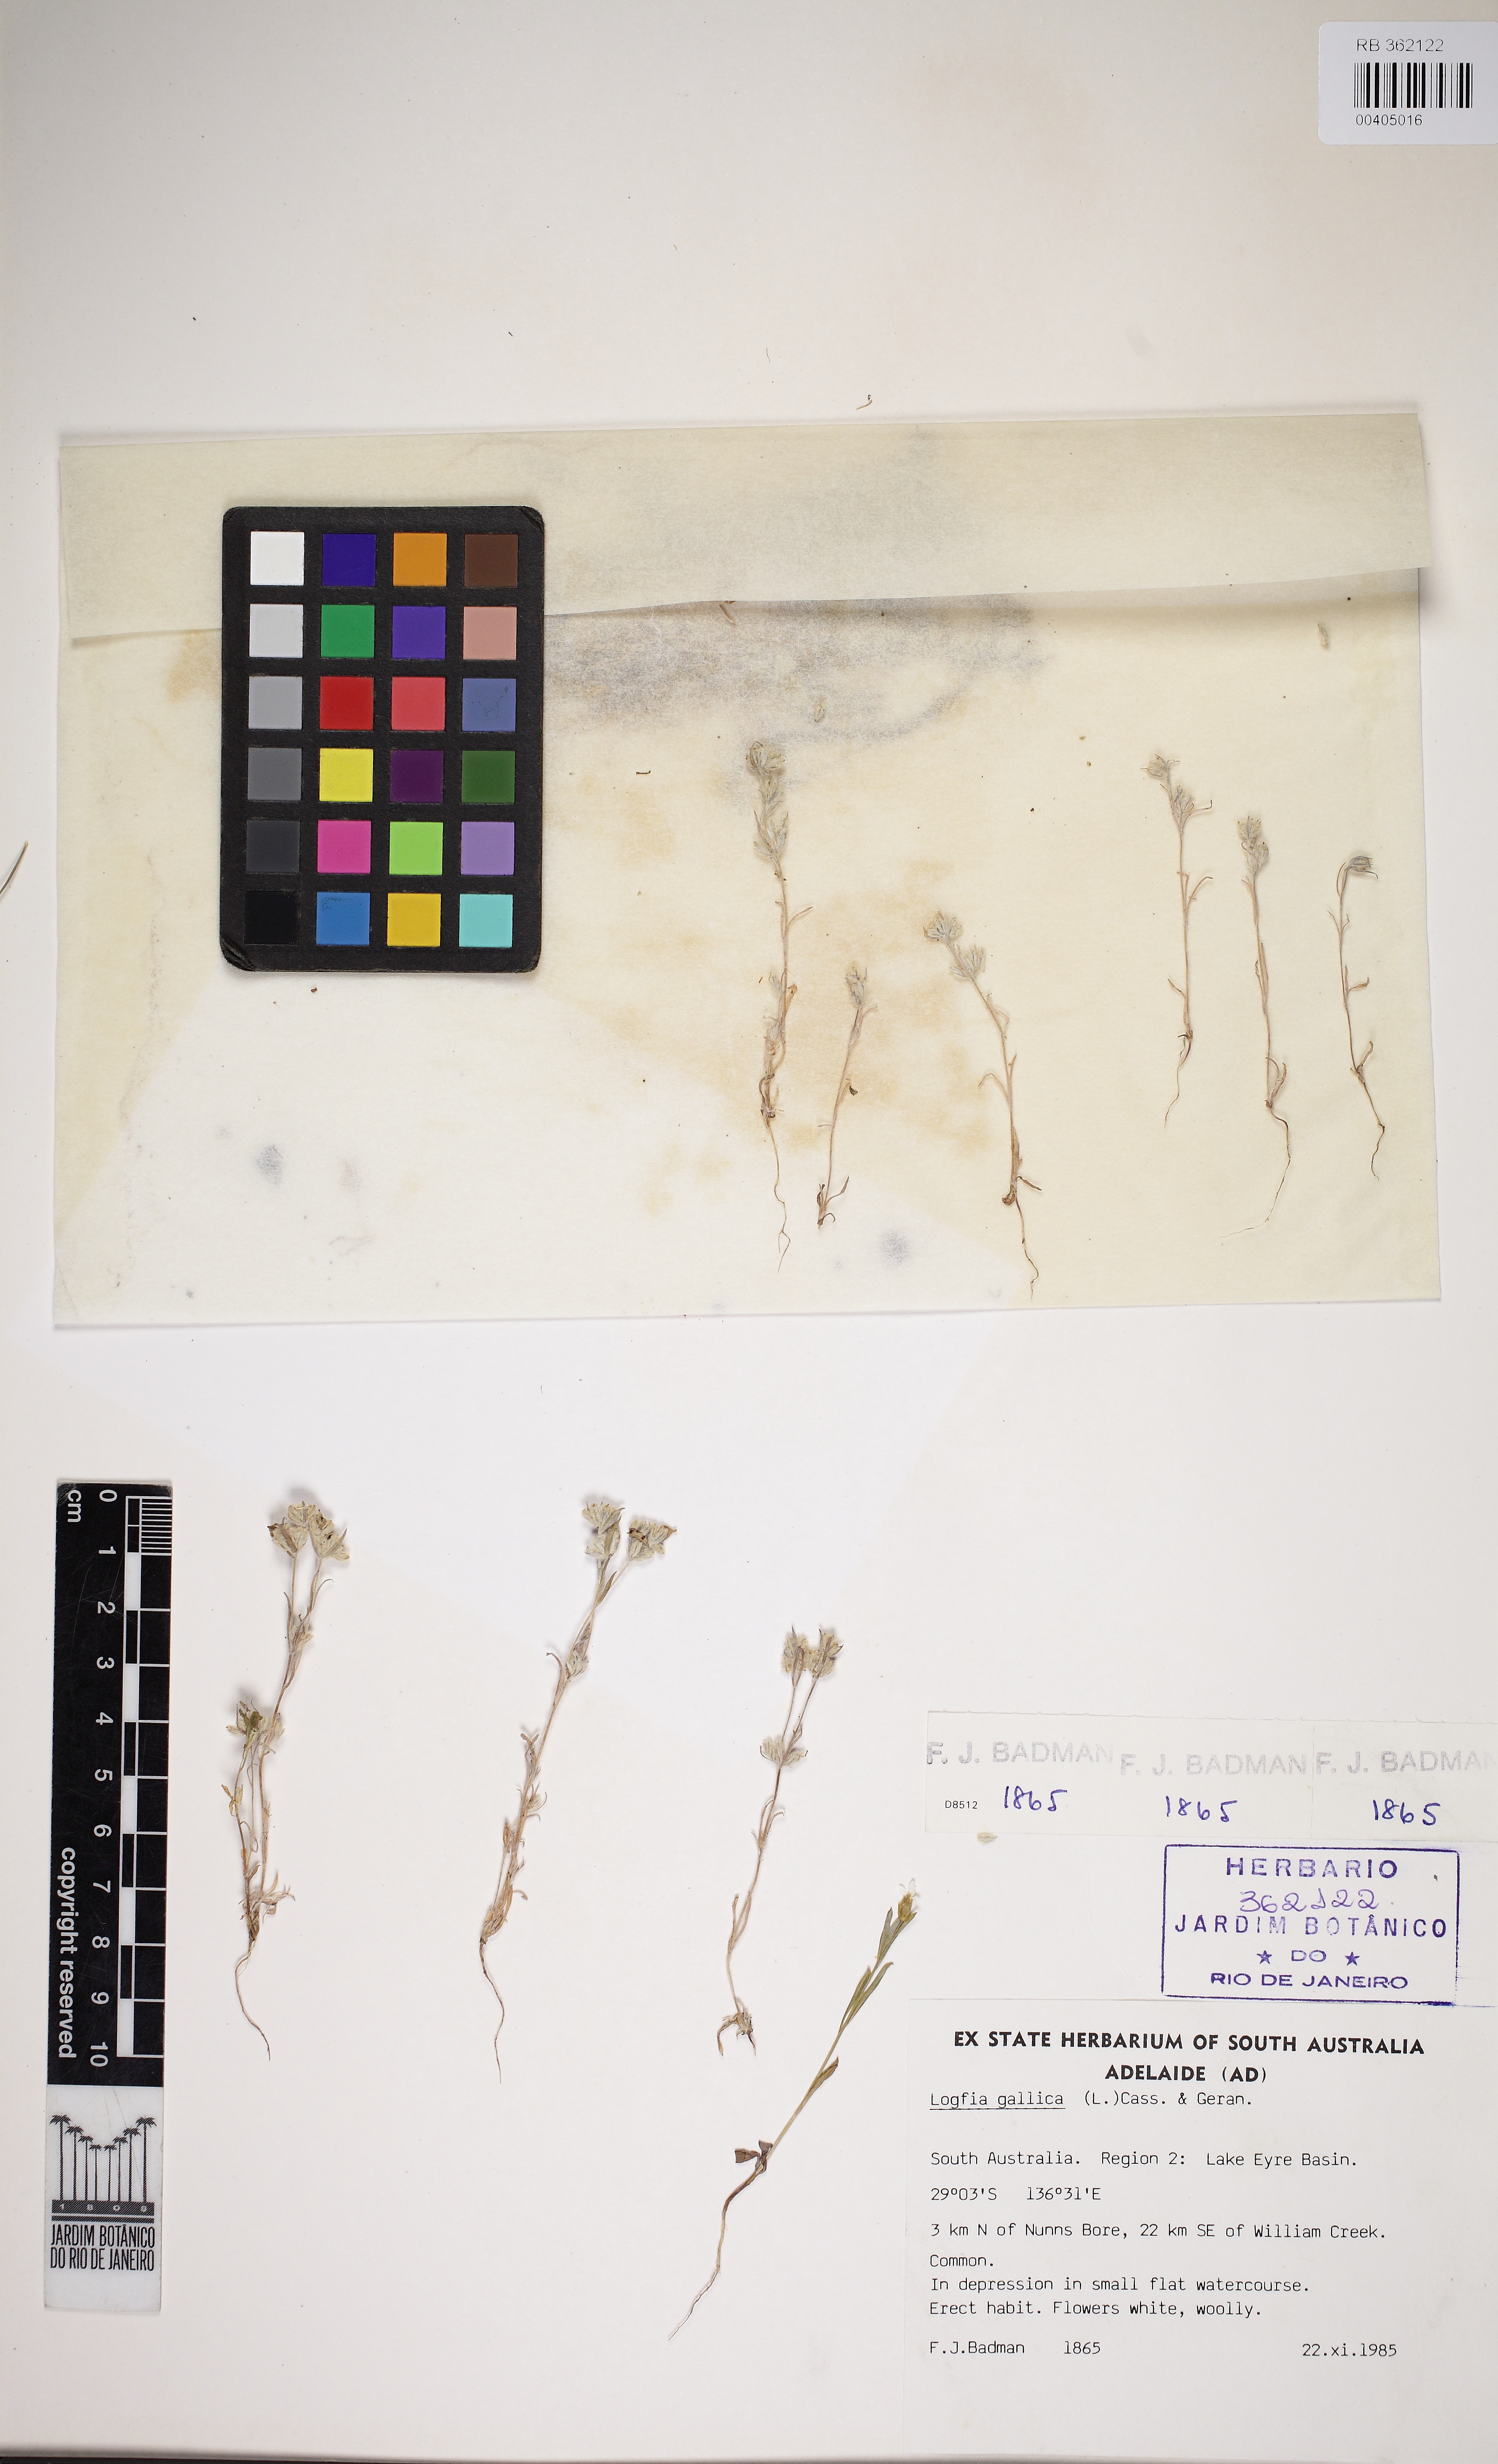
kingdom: Plantae
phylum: Tracheophyta
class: Magnoliopsida
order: Asterales
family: Asteraceae
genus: Logfia
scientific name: Logfia gallica
